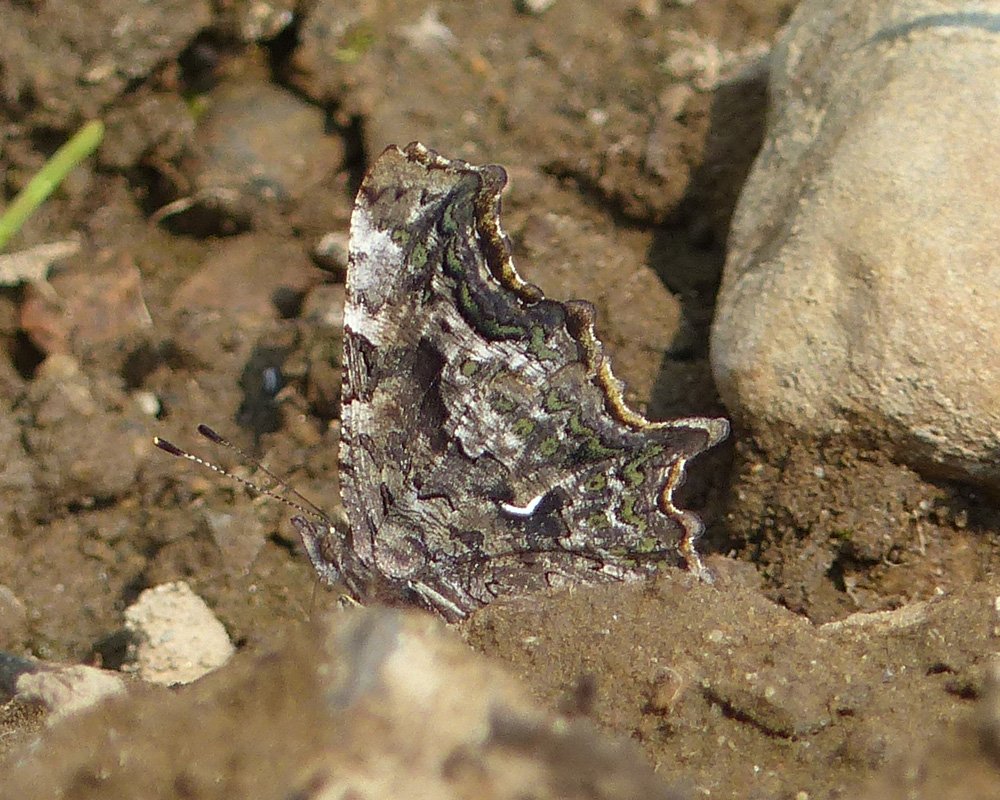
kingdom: Animalia
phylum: Arthropoda
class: Insecta
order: Lepidoptera
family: Nymphalidae
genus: Polygonia
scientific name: Polygonia faunus
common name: Green Comma
